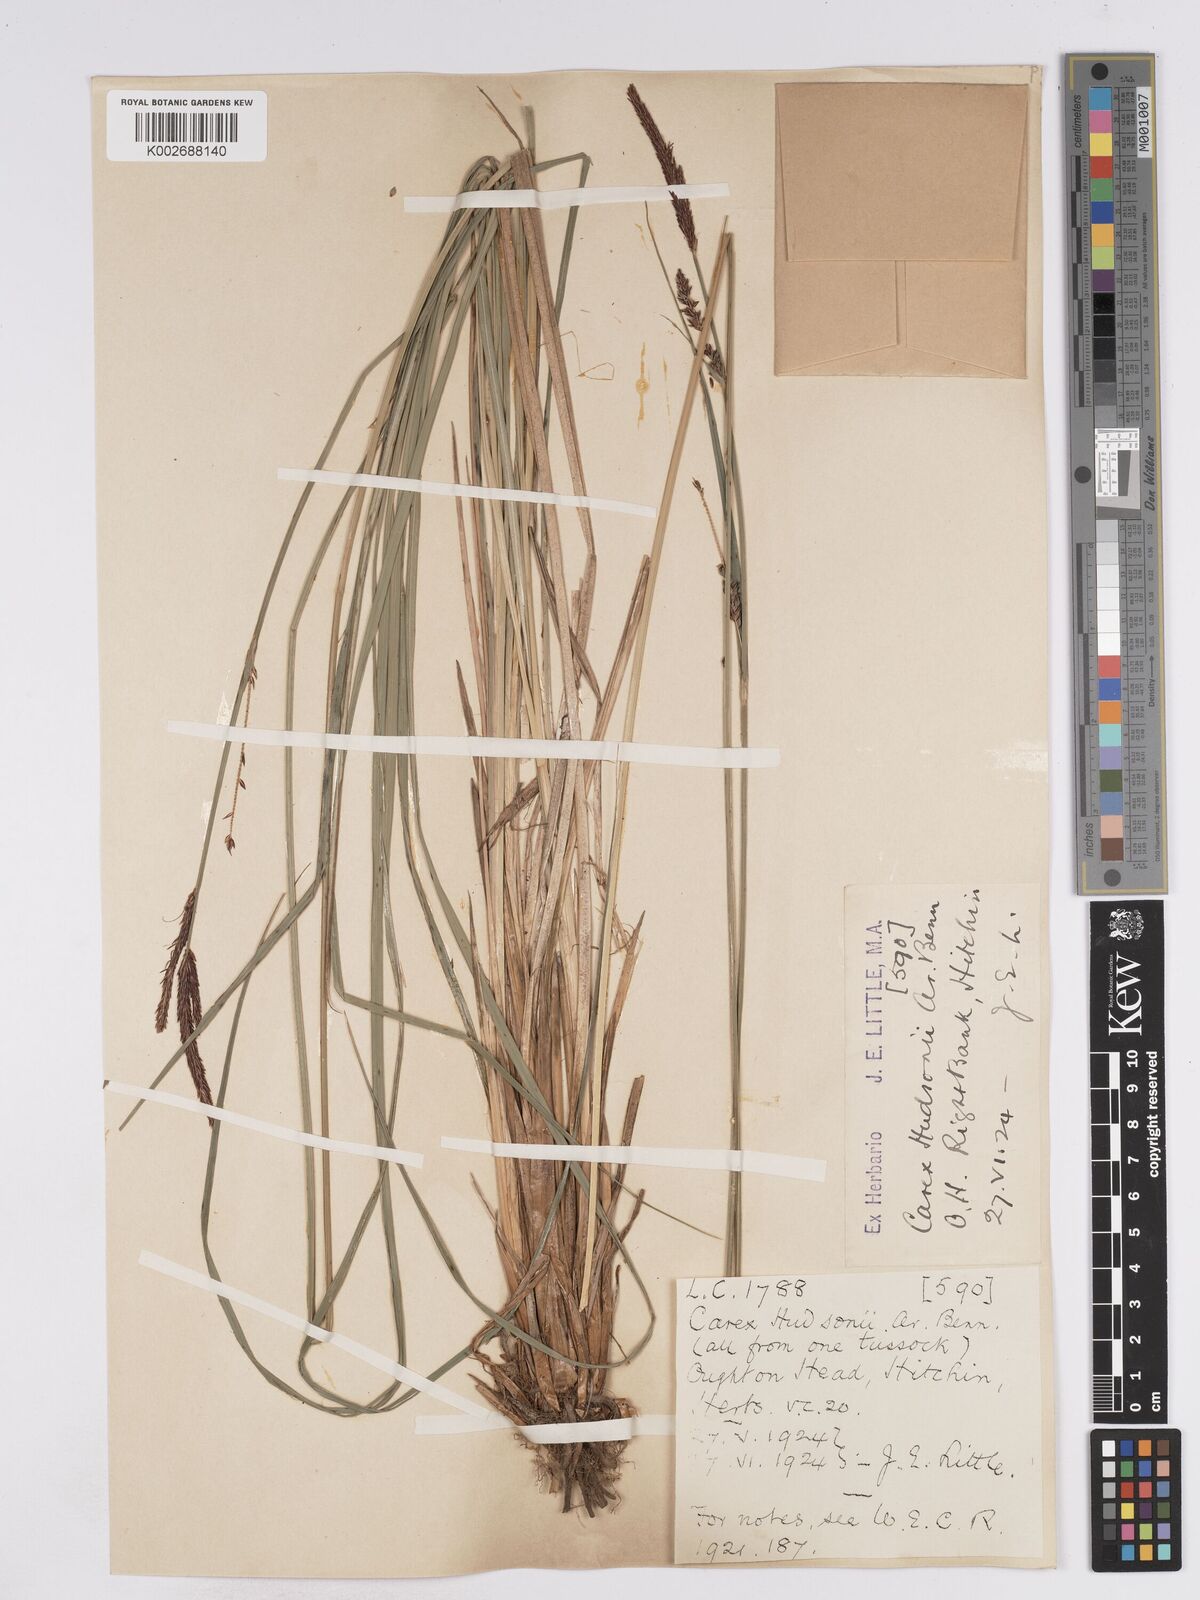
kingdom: Plantae
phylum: Tracheophyta
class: Liliopsida
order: Poales
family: Cyperaceae
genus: Carex
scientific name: Carex elata
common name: Tufted sedge
